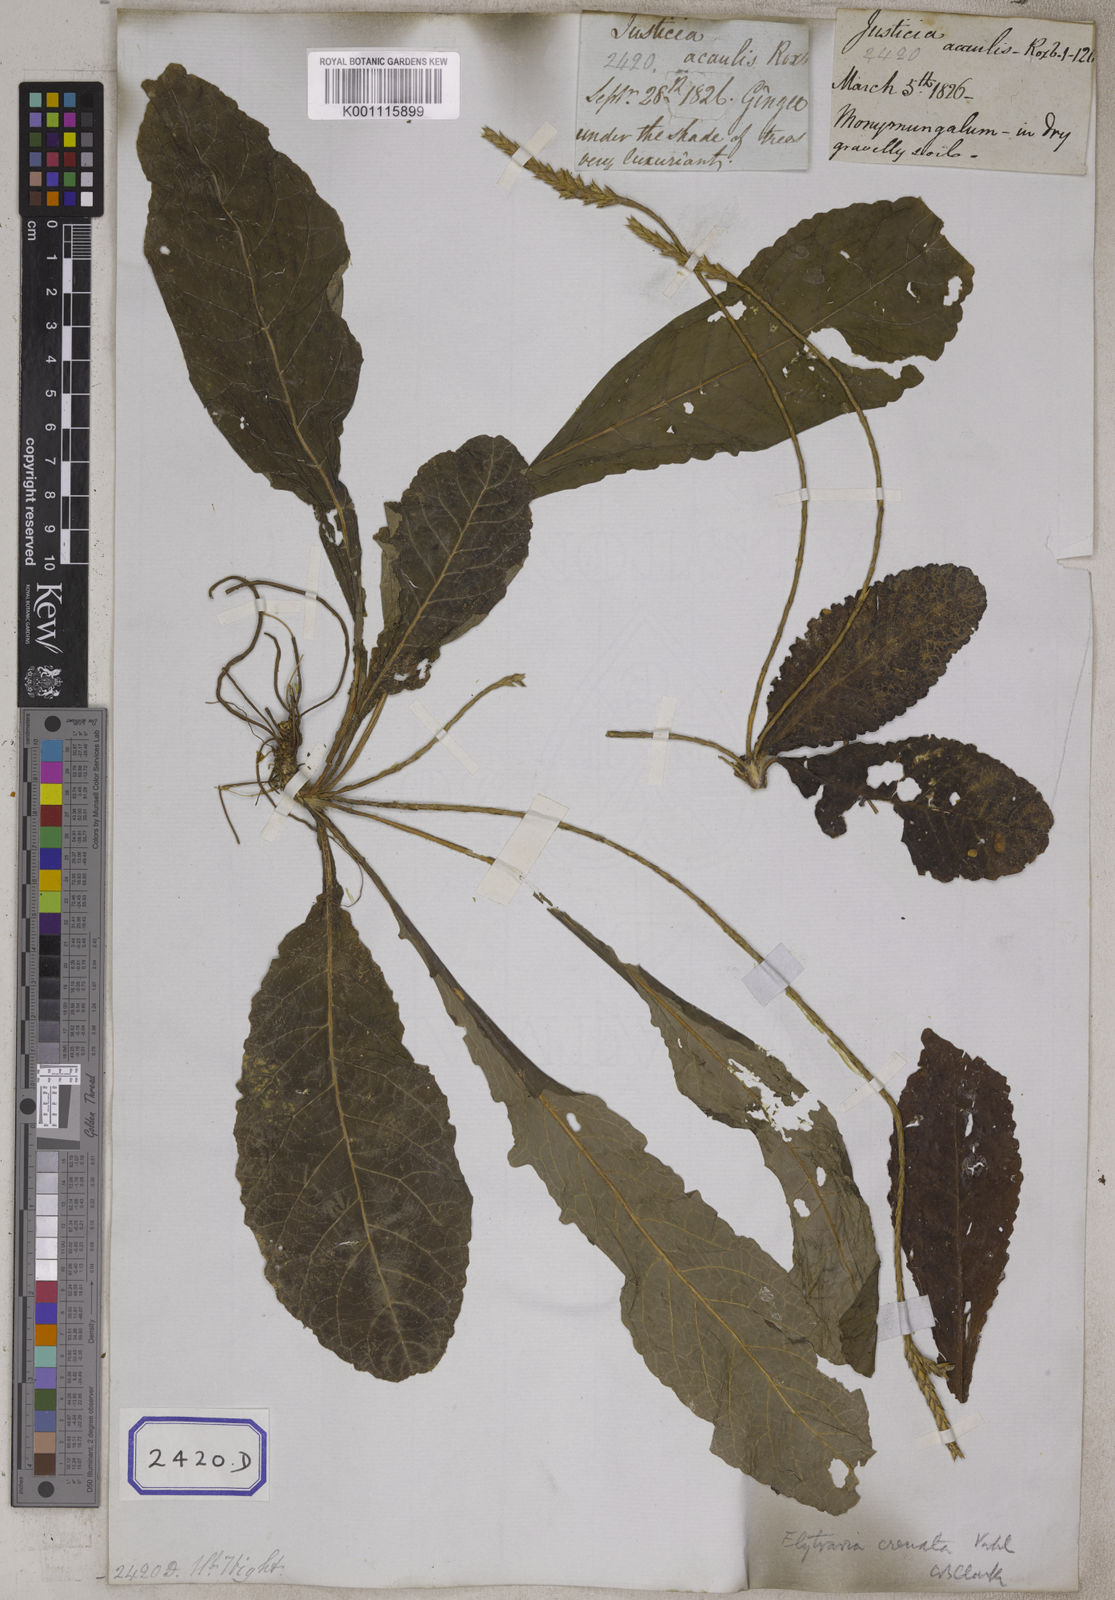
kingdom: Plantae
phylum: Tracheophyta
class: Magnoliopsida
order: Lamiales
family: Acanthaceae
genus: Elytraria
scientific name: Elytraria acaulis
